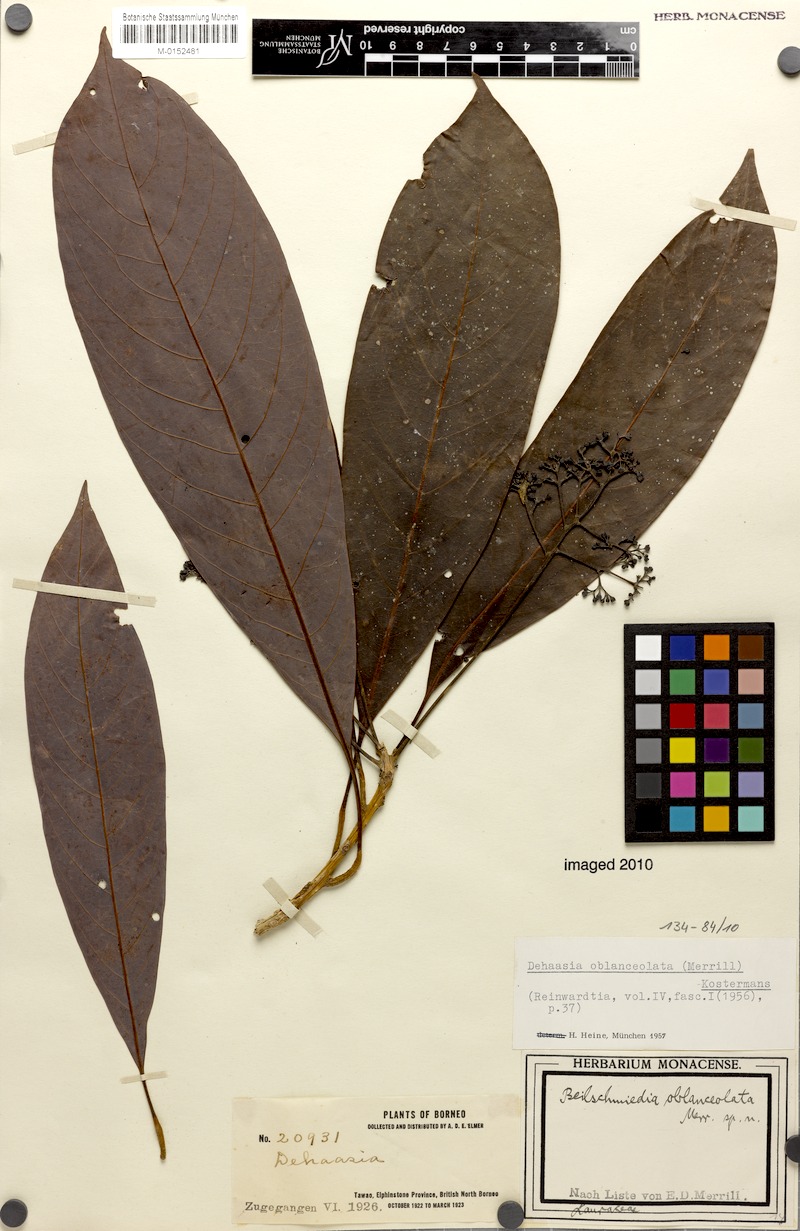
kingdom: Plantae
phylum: Tracheophyta
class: Magnoliopsida
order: Laurales
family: Lauraceae
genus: Alseodaphne
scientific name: Alseodaphne oblanceolata
